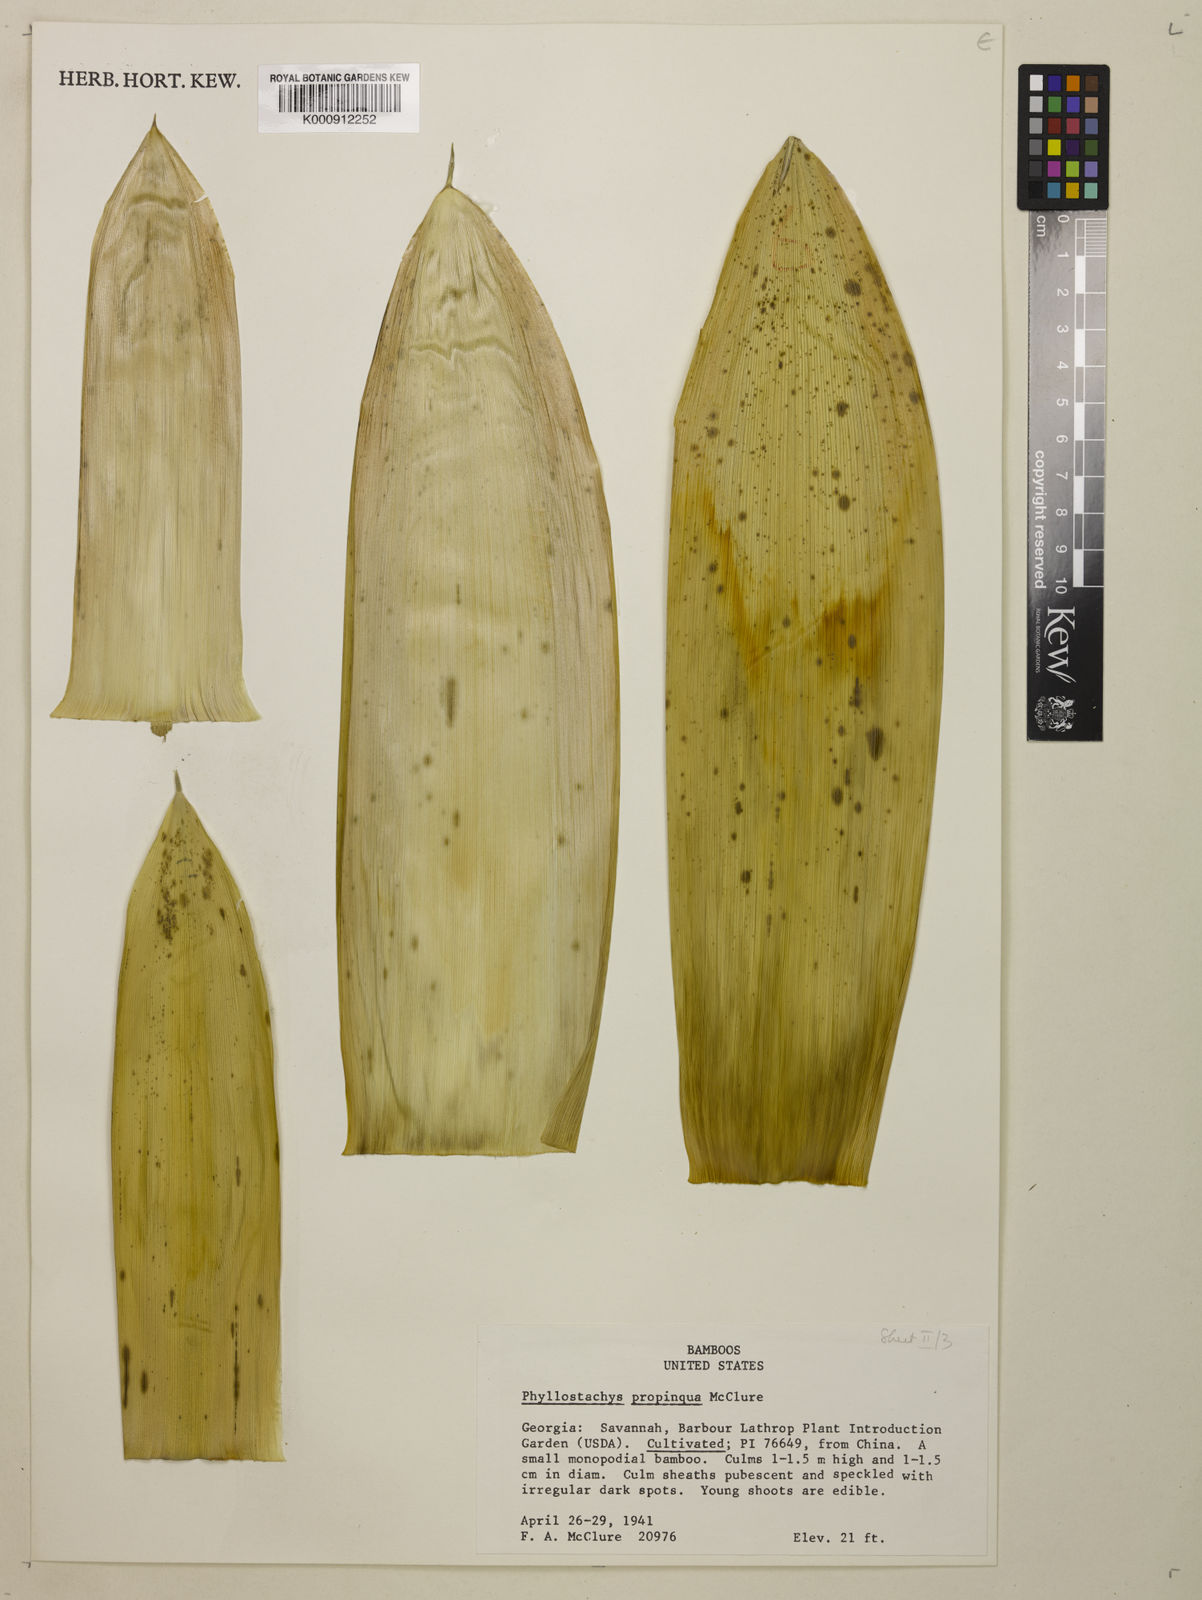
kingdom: Plantae
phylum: Tracheophyta
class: Liliopsida
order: Poales
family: Poaceae
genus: Phyllostachys
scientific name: Phyllostachys propinqua
